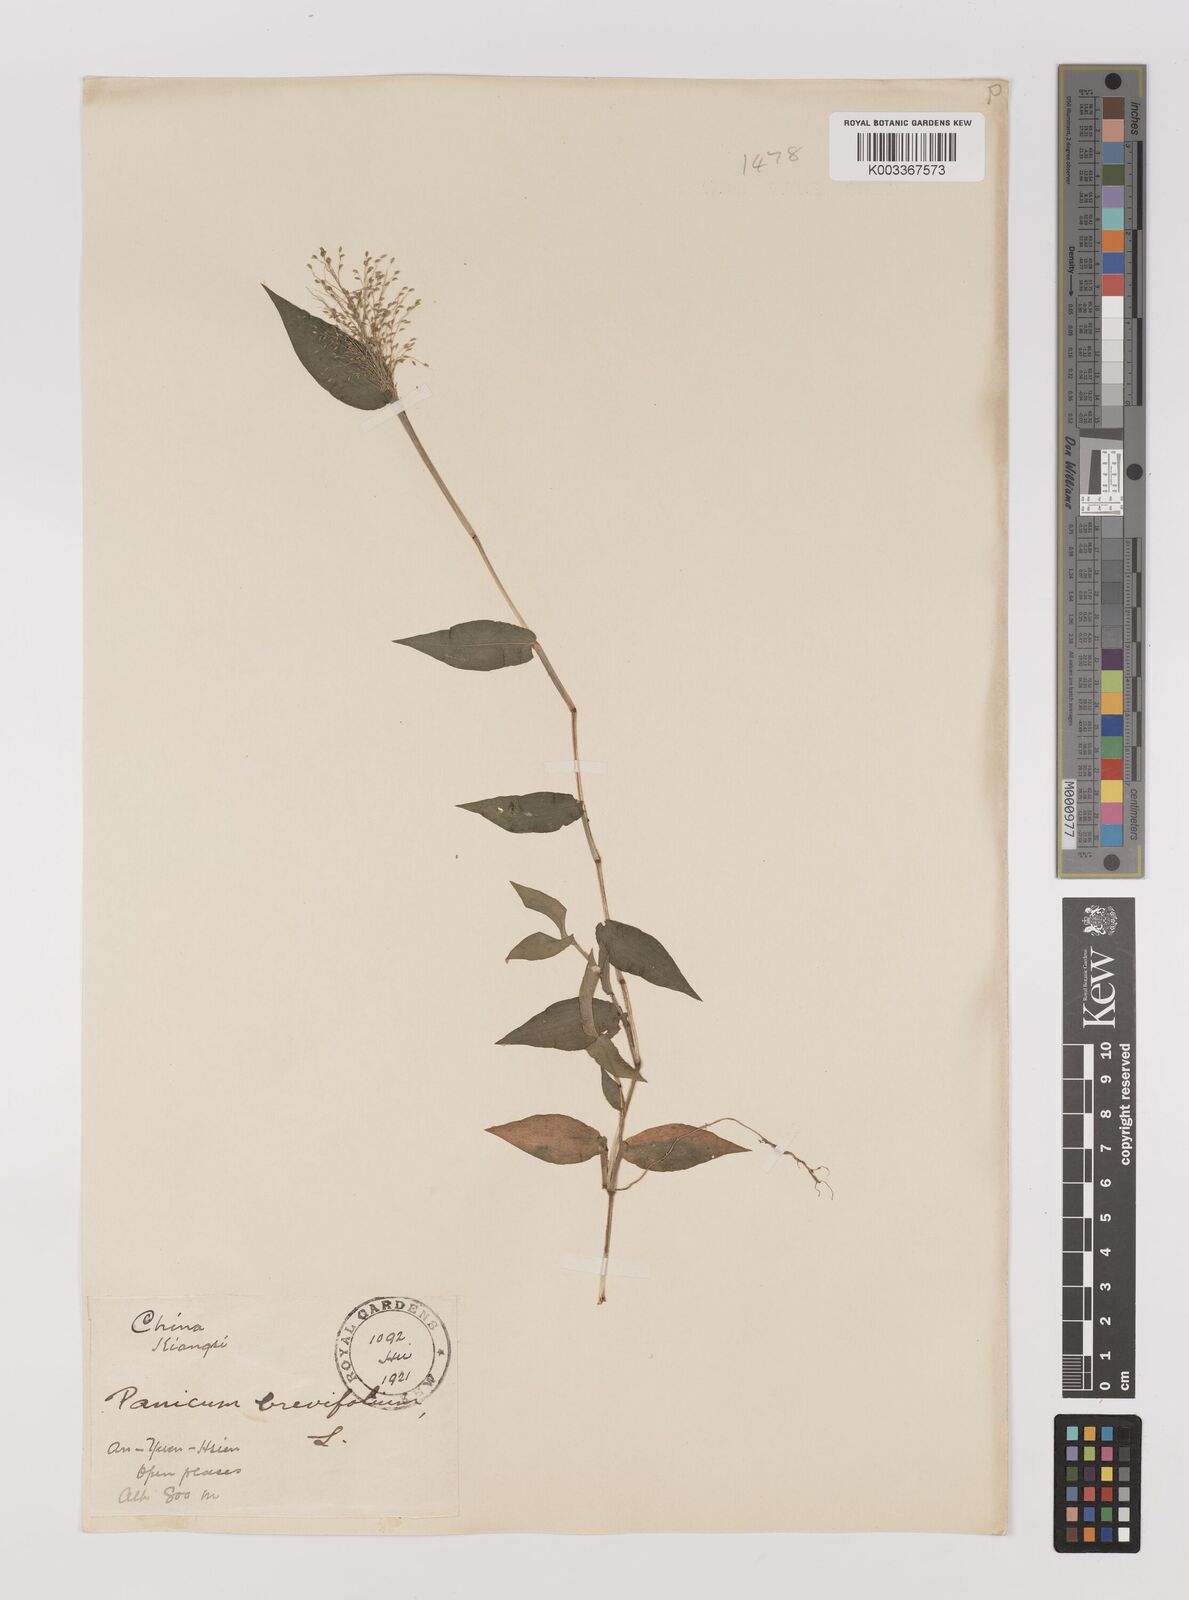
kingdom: Plantae
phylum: Tracheophyta
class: Liliopsida
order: Poales
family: Poaceae
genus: Panicum
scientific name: Panicum brevifolium
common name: Shortleaf panic grass
